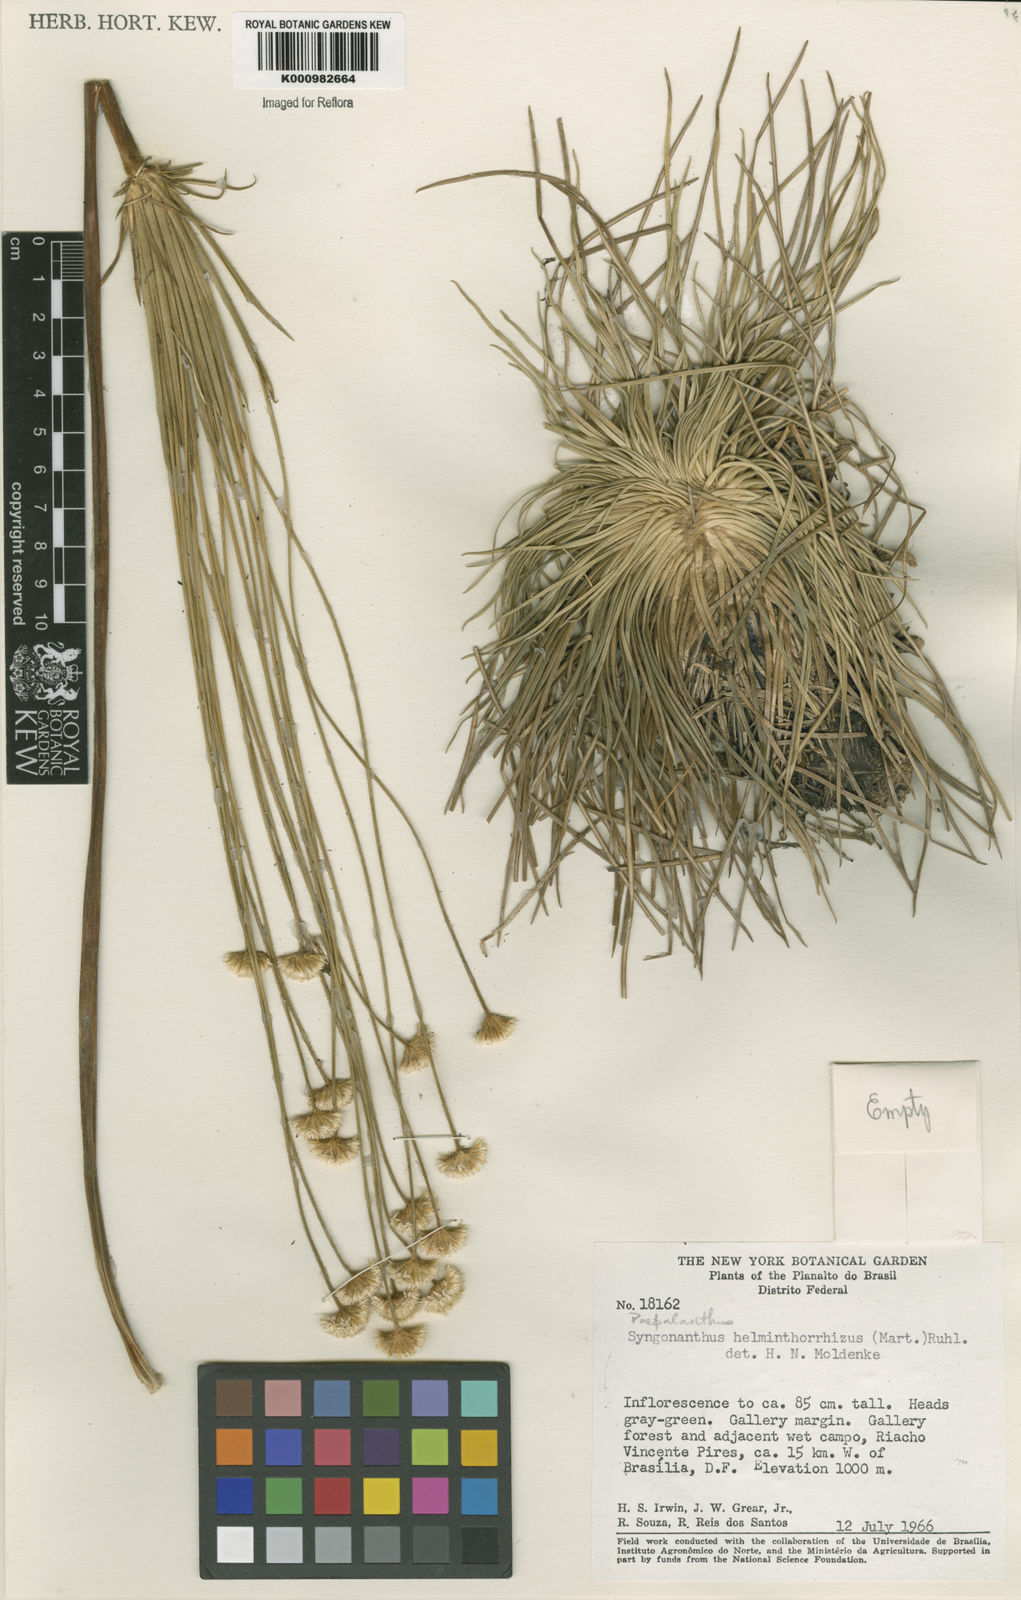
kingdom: Plantae
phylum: Tracheophyta
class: Liliopsida
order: Poales
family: Eriocaulaceae
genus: Syngonanthus
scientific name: Syngonanthus
